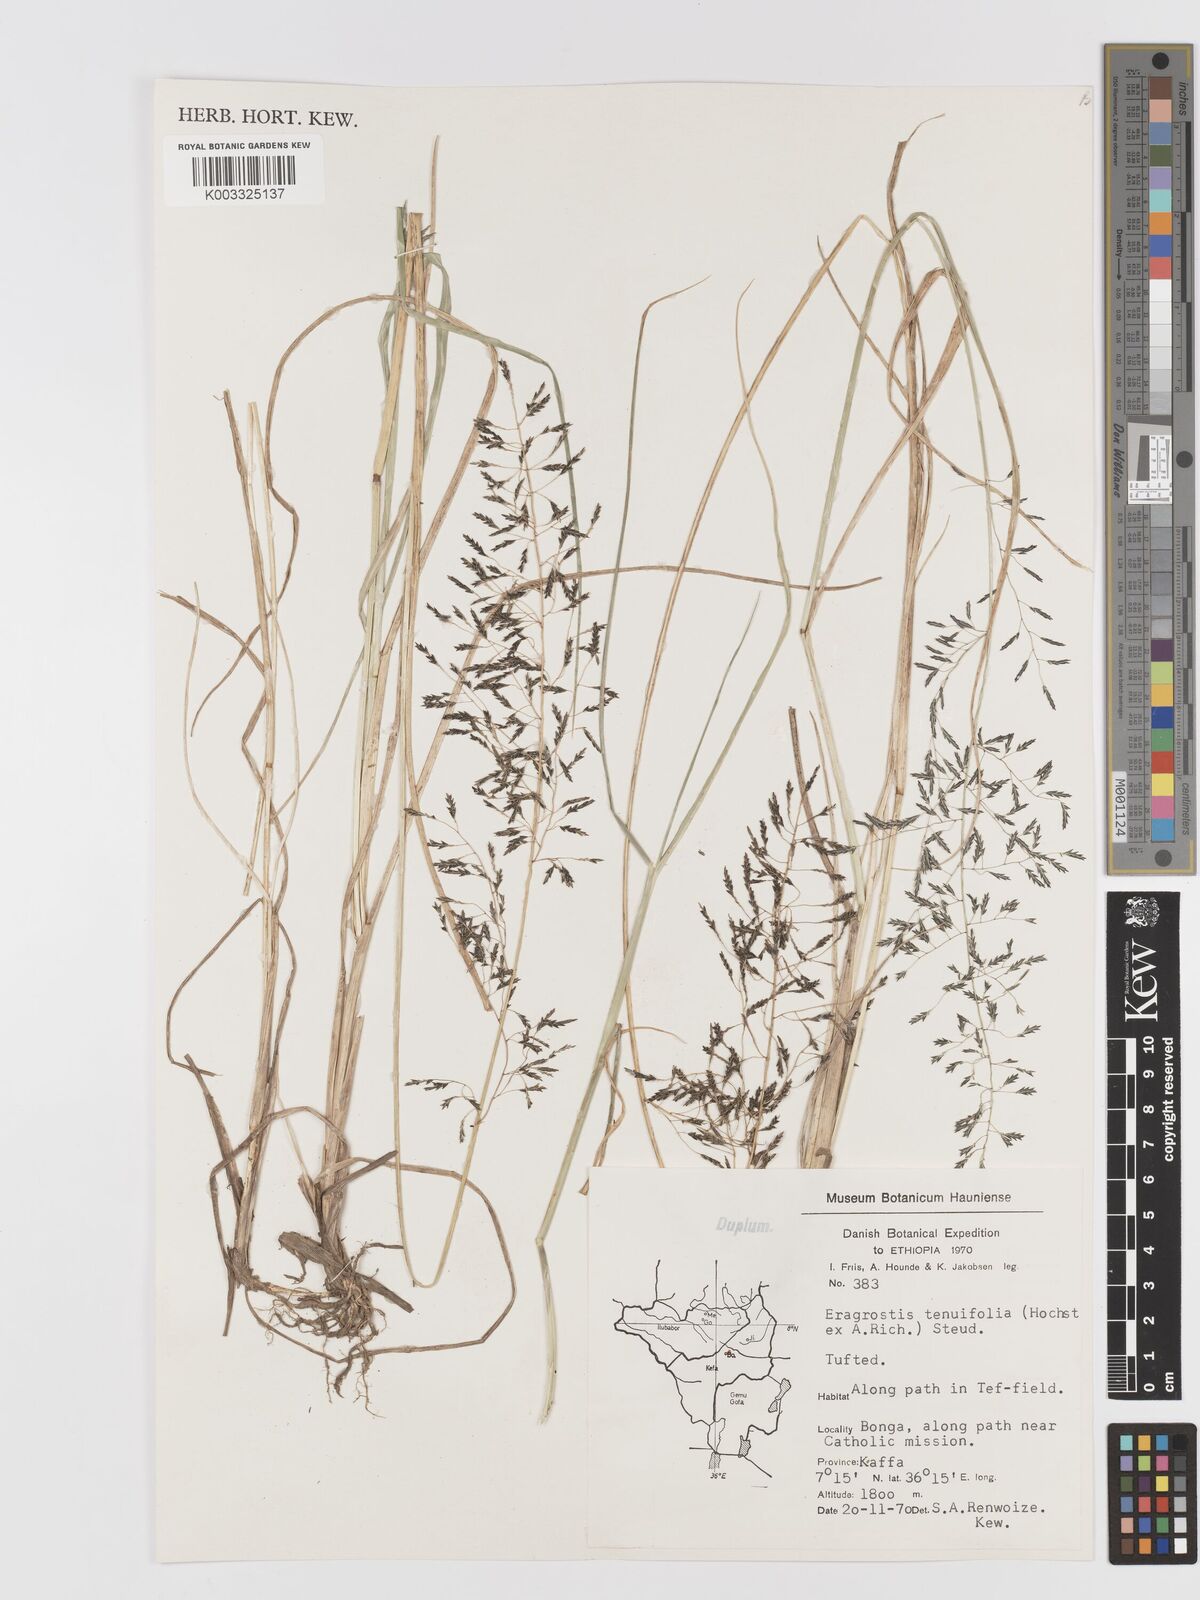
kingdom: Plantae
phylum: Tracheophyta
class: Liliopsida
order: Poales
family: Poaceae
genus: Eragrostis
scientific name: Eragrostis tenuifolia
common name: Elastic grass
